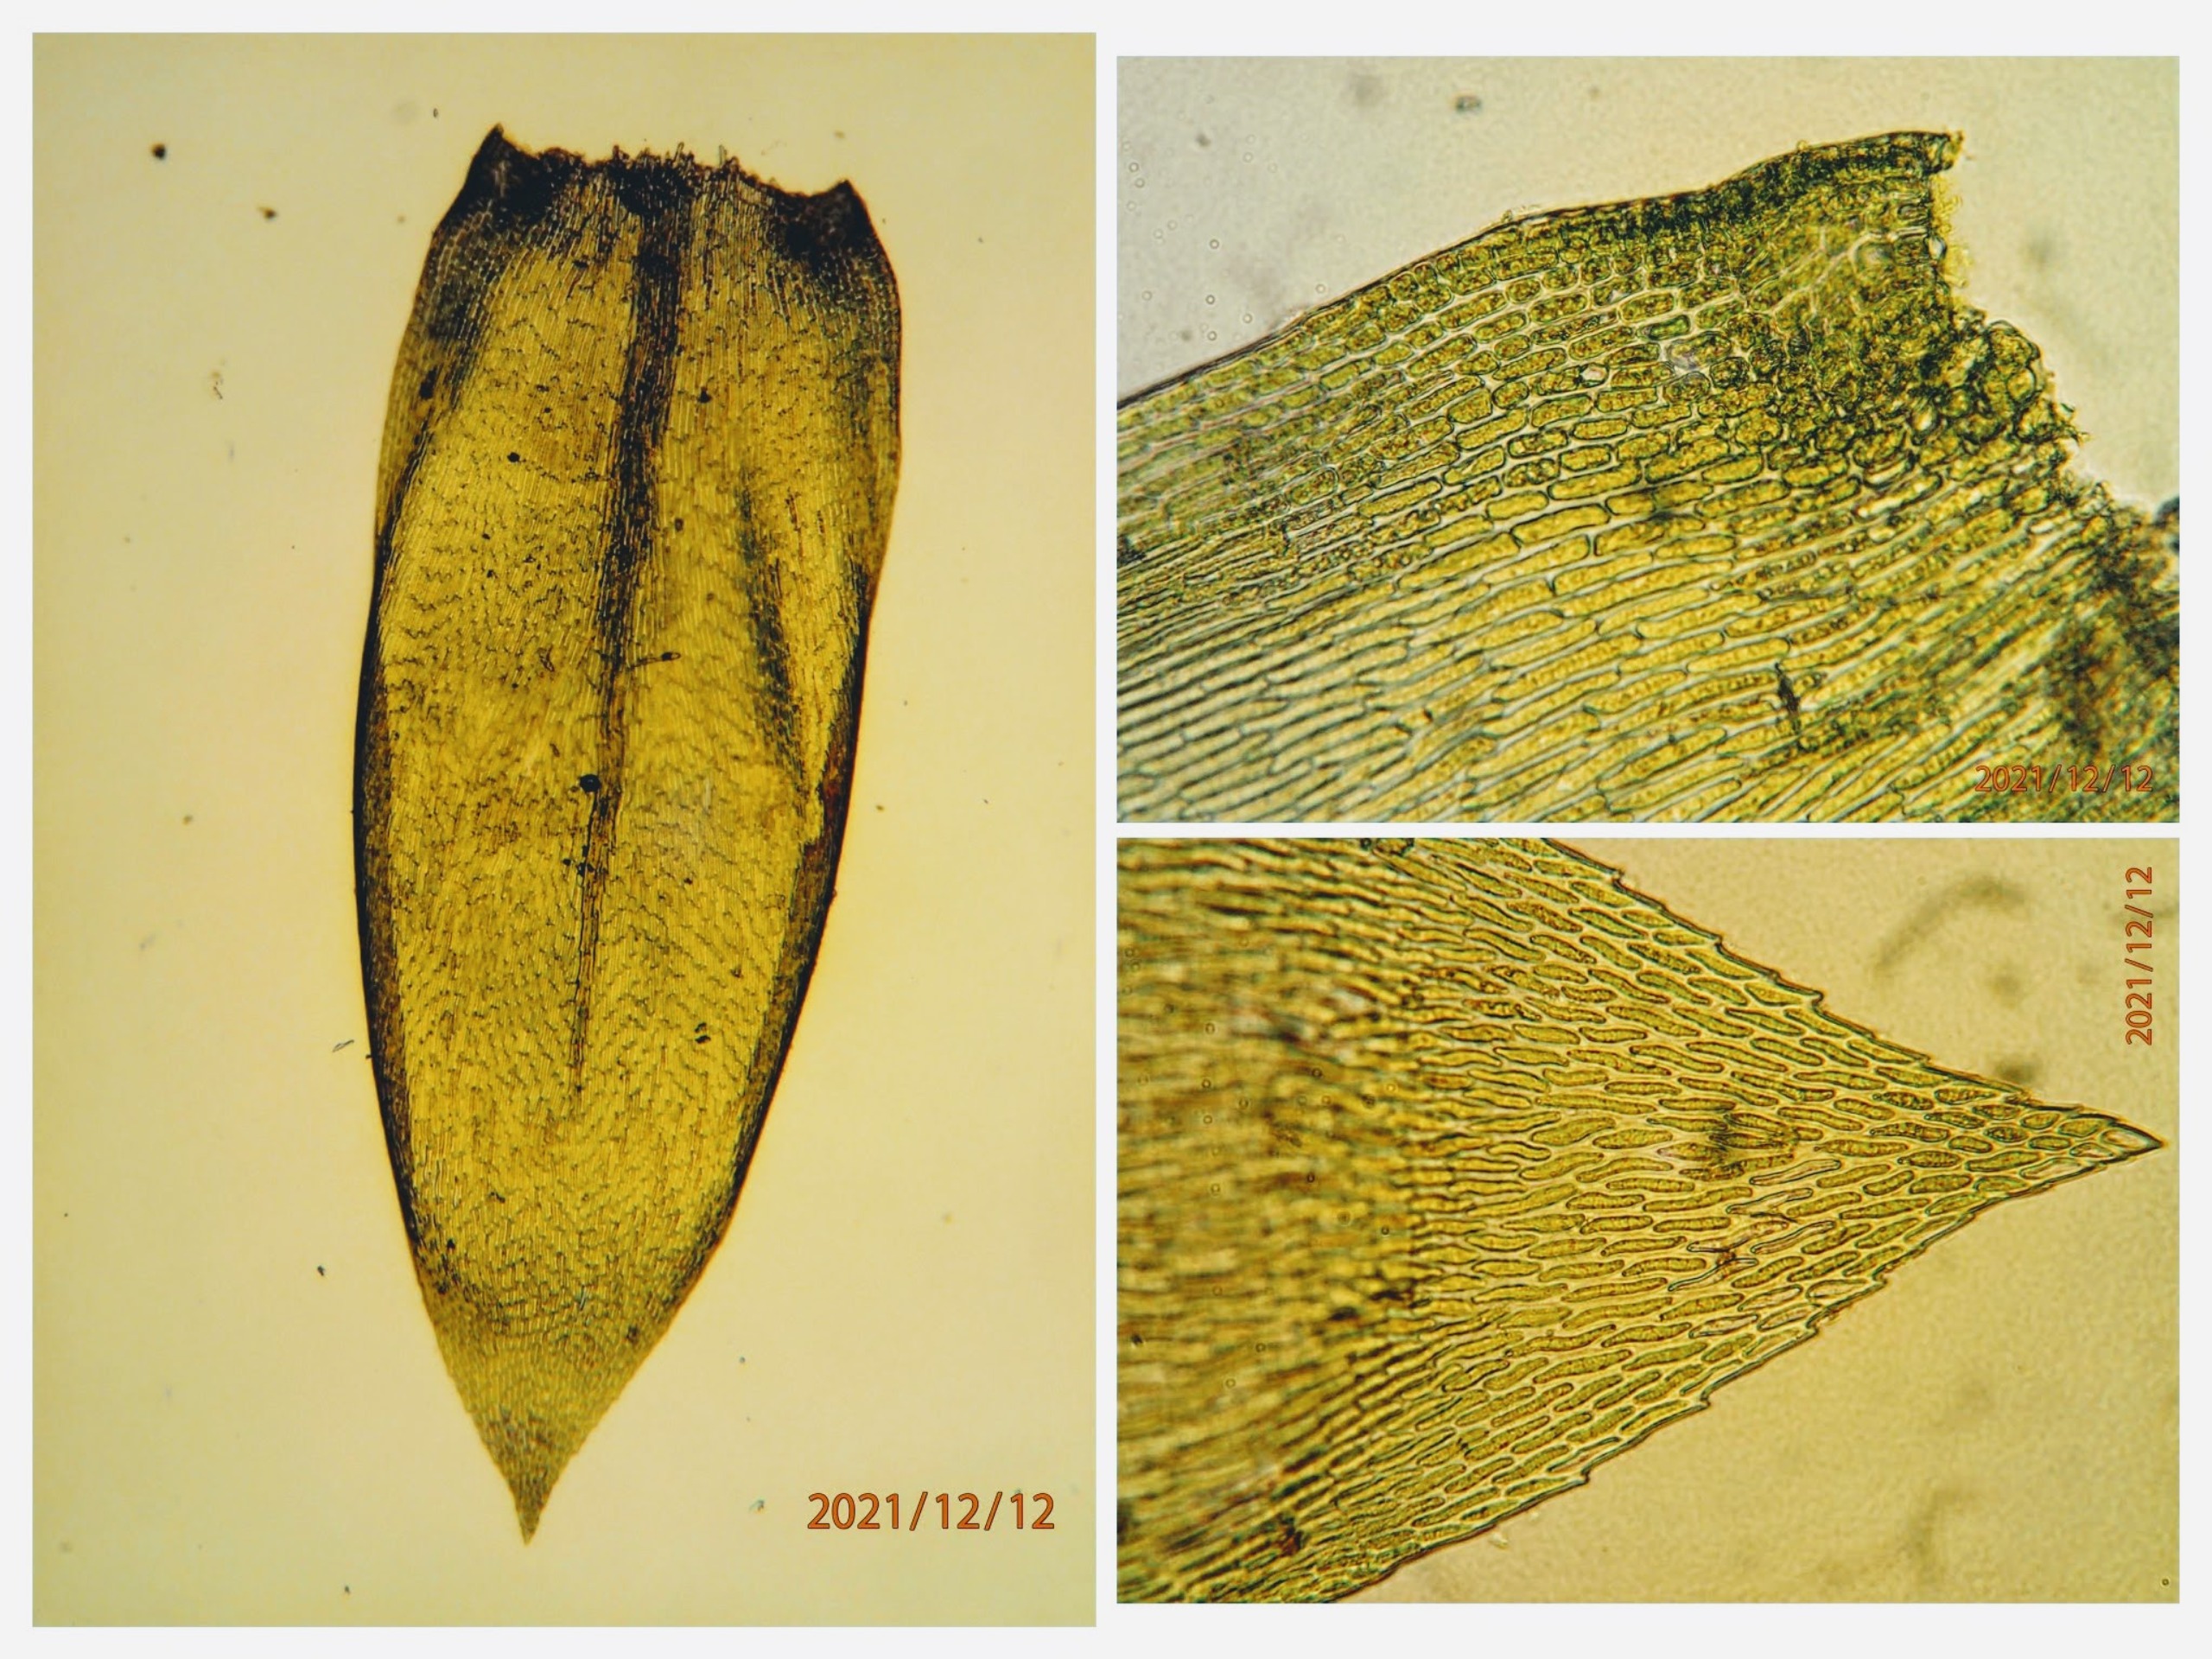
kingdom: Plantae
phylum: Bryophyta
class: Bryopsida
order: Hypnales
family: Lembophyllaceae
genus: Isothecium
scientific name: Isothecium alopecuroides
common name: Stor stammemos
